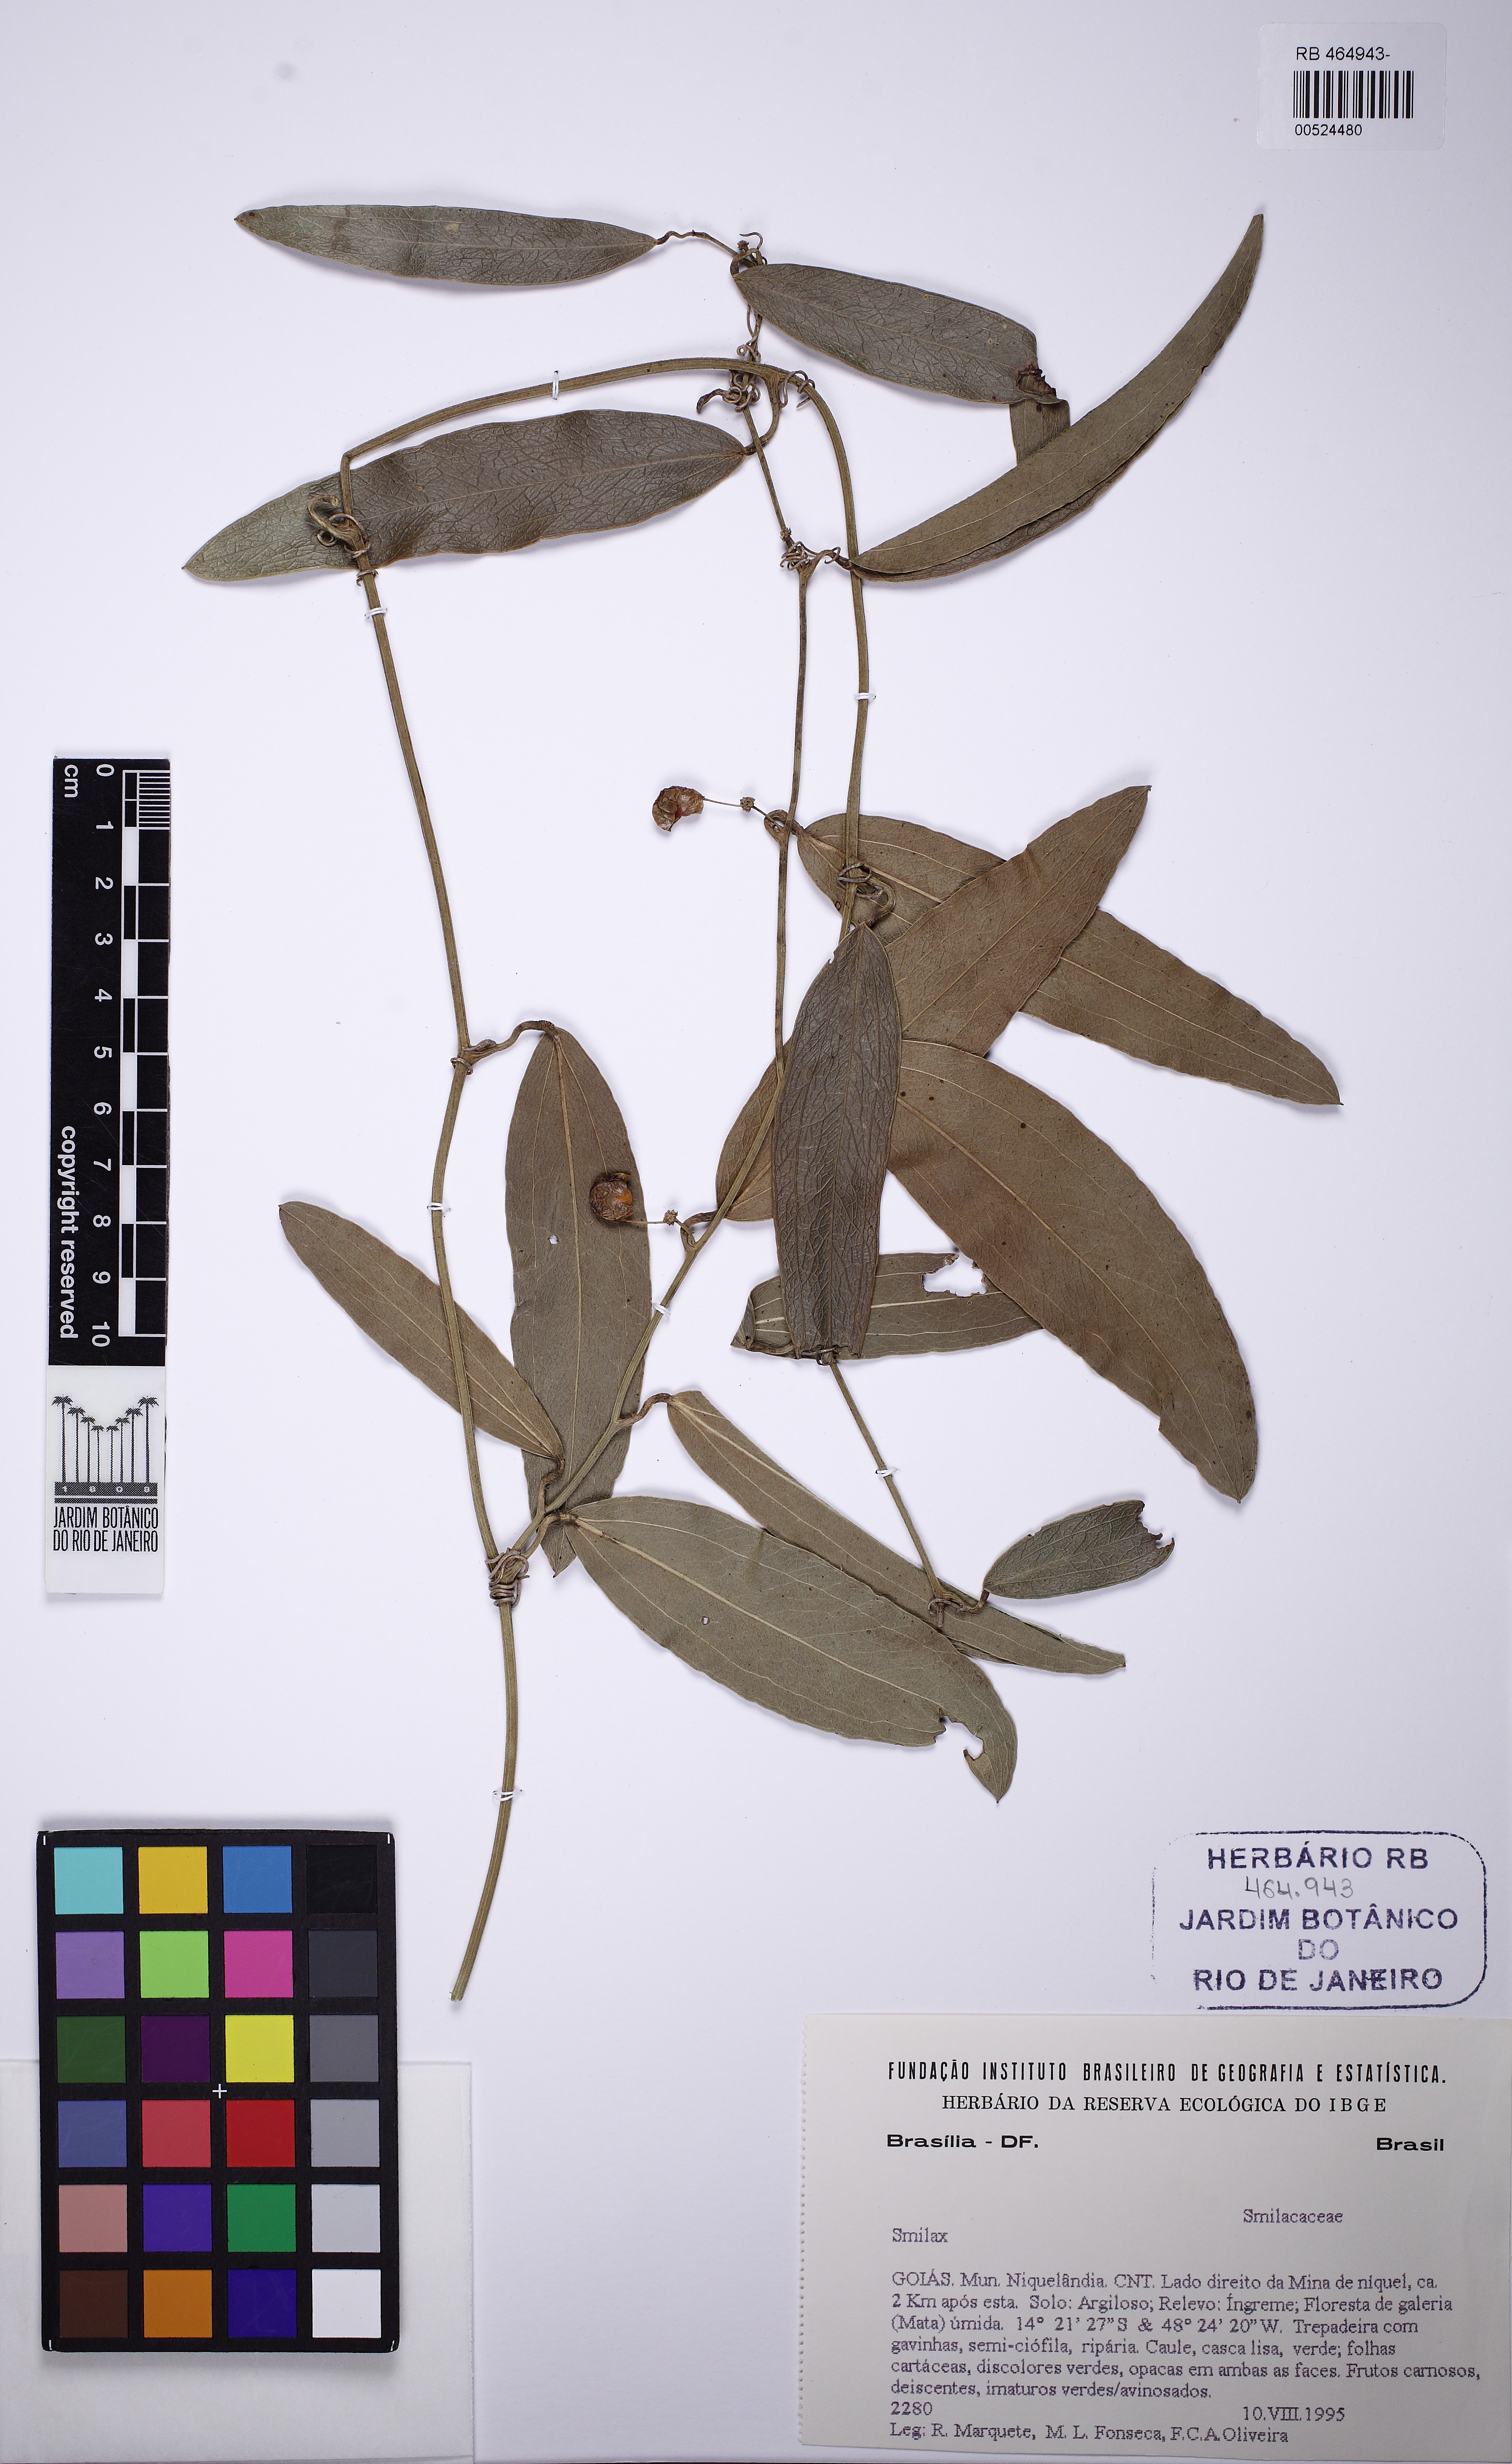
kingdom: Plantae
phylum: Tracheophyta
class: Liliopsida
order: Liliales
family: Smilacaceae
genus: Smilax
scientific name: Smilax
